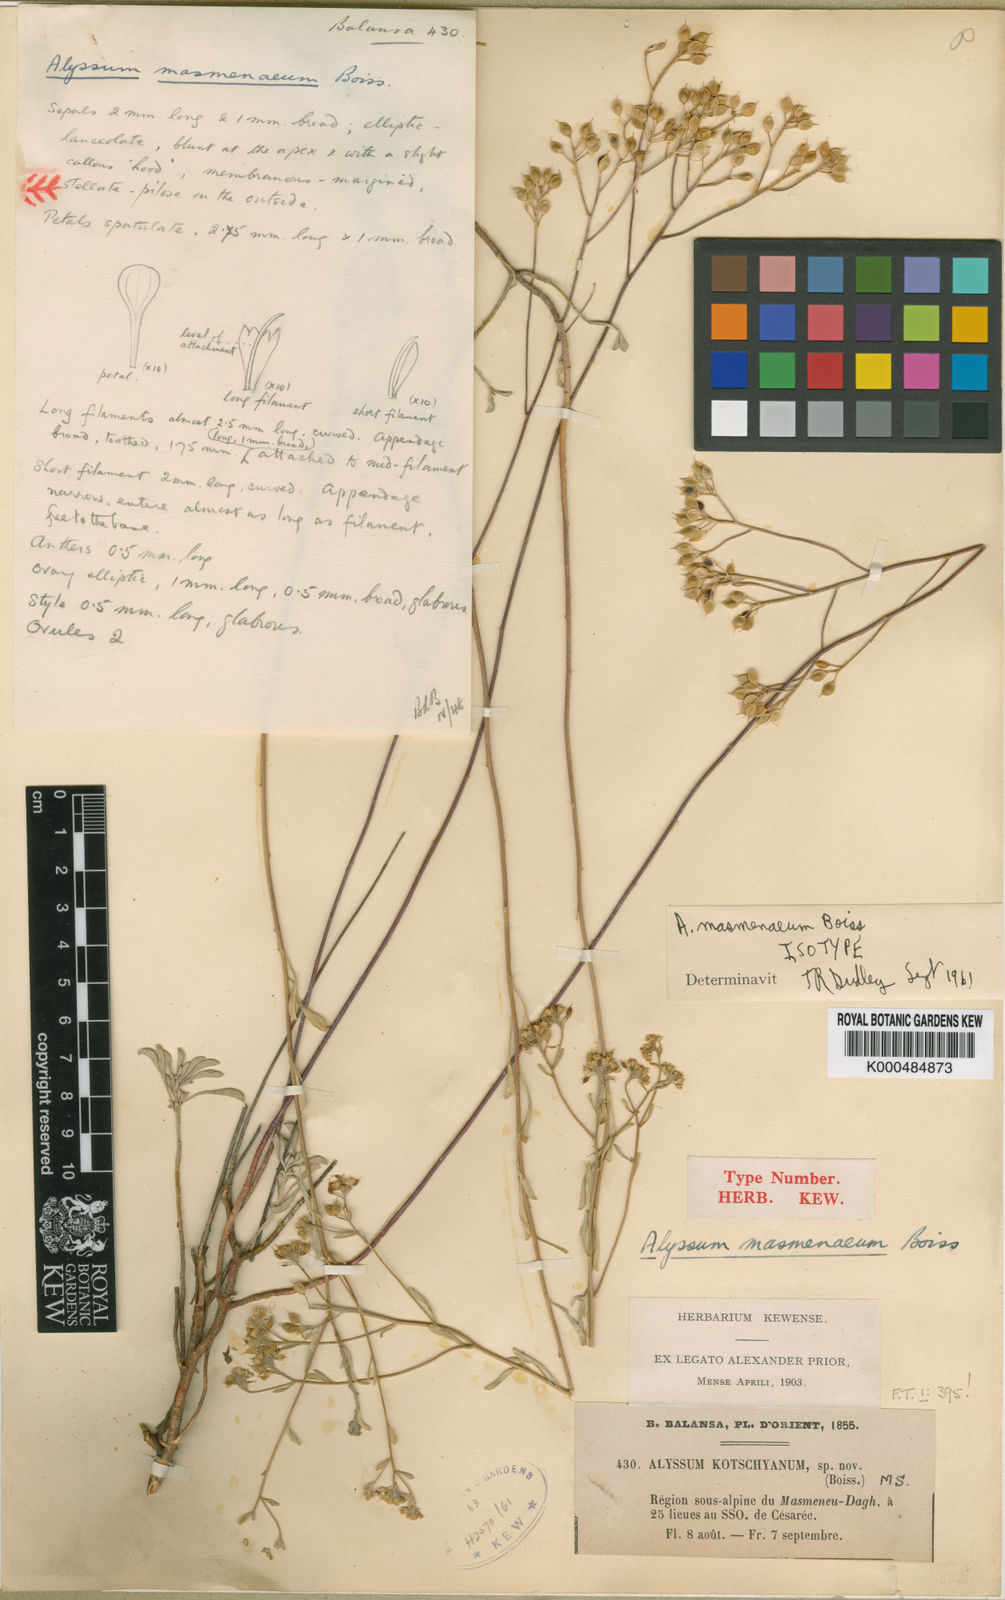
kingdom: Plantae
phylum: Tracheophyta
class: Magnoliopsida
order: Brassicales
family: Brassicaceae
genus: Odontarrhena
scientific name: Odontarrhena muralis
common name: Rock alyssum
